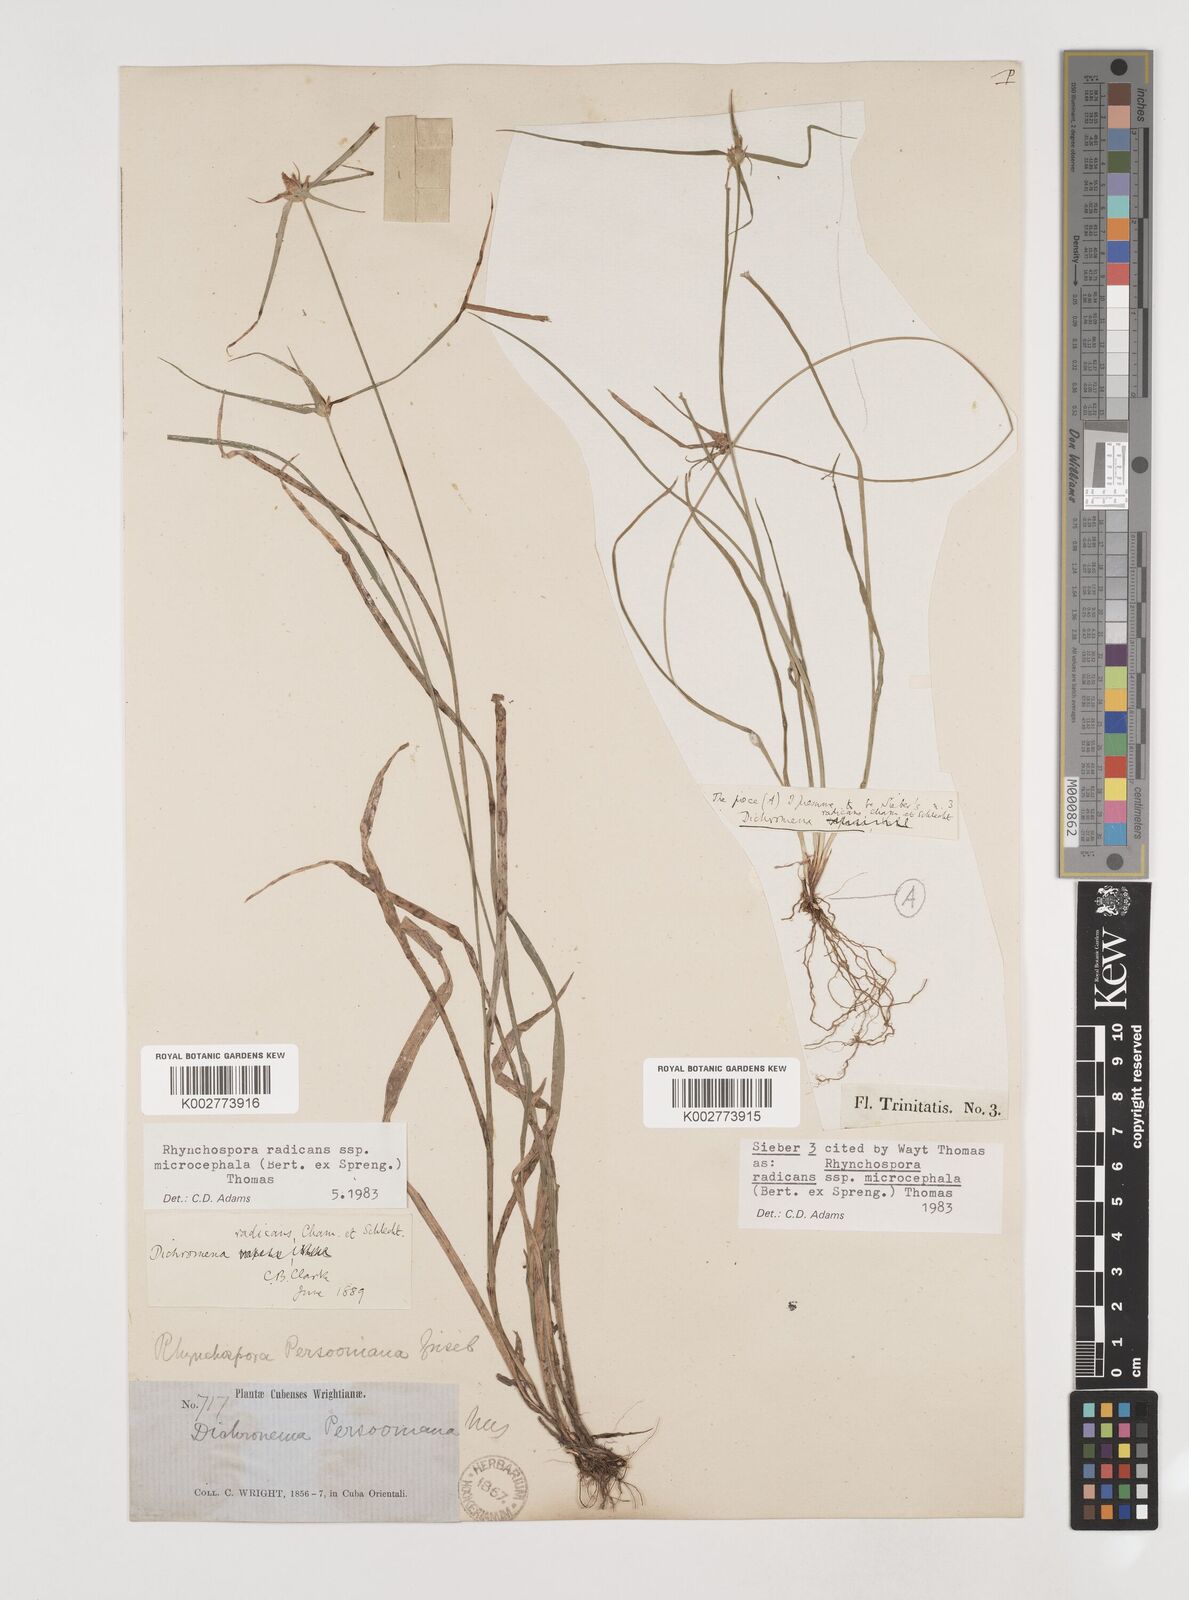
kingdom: Plantae
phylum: Tracheophyta
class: Liliopsida
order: Poales
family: Cyperaceae
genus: Rhynchospora
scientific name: Rhynchospora radicans
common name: Tropical whitetop
